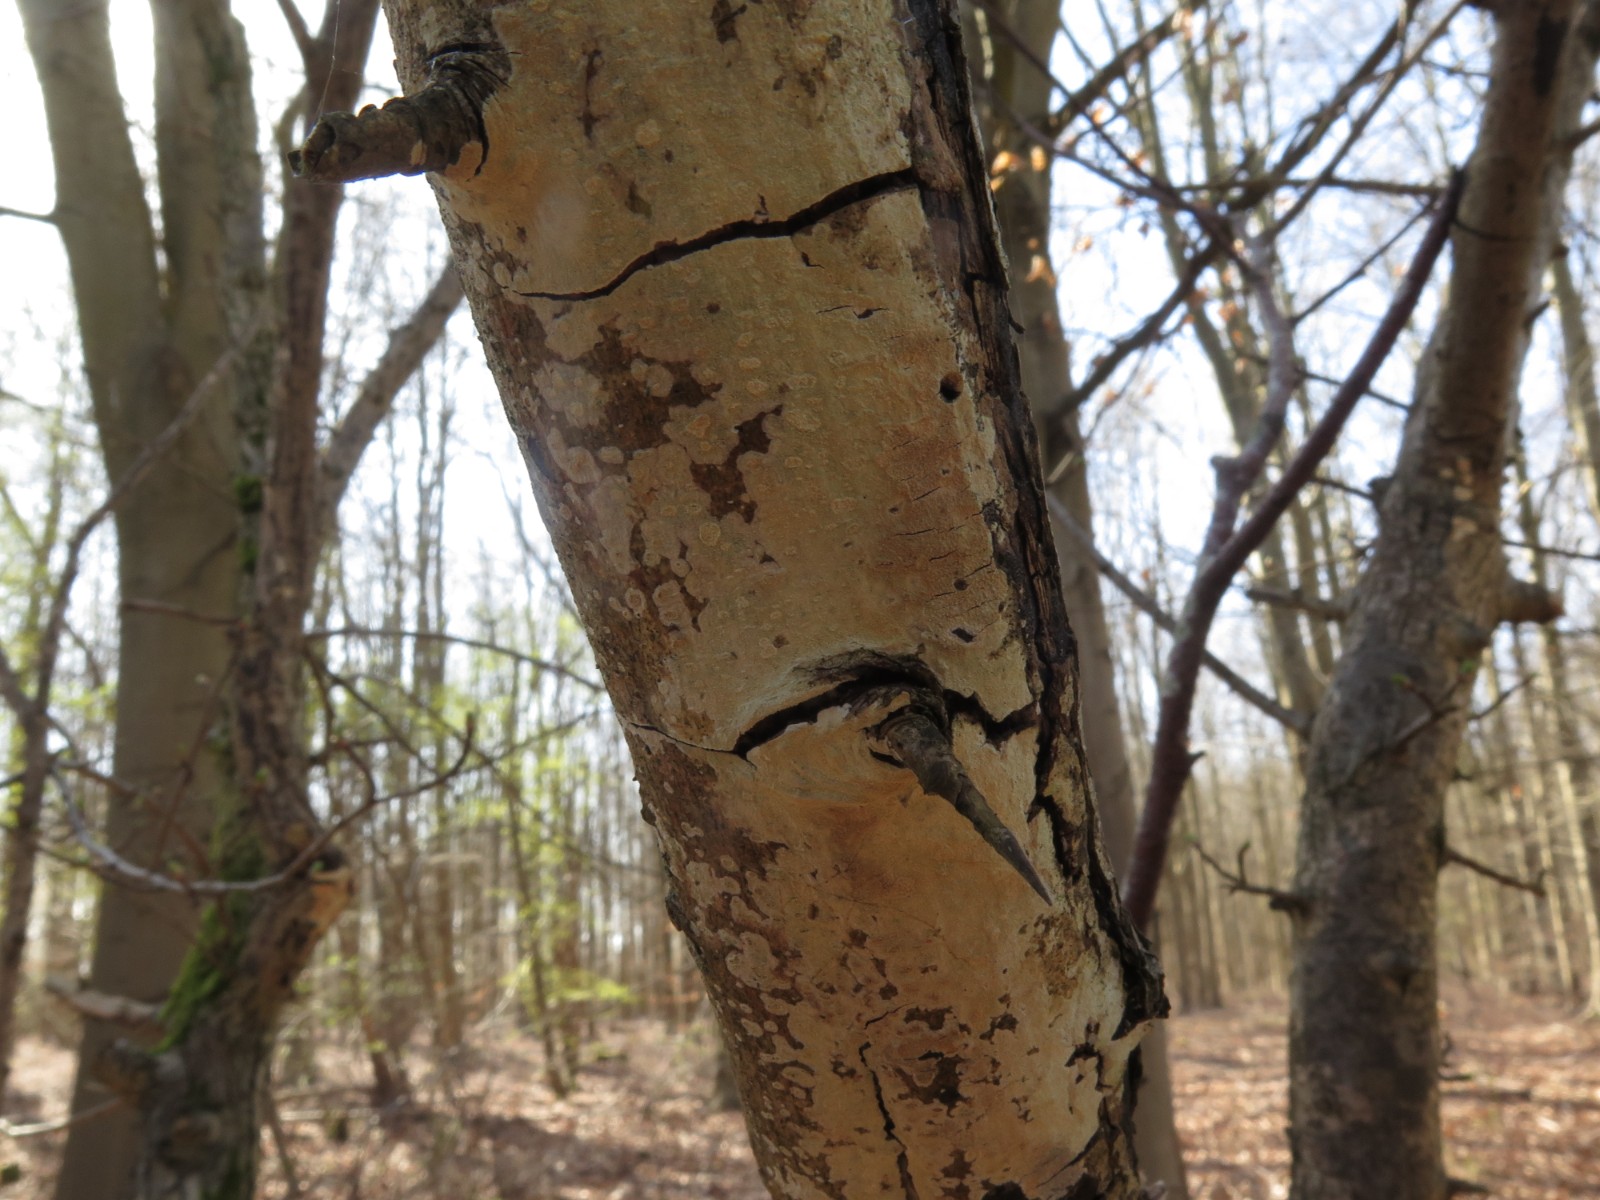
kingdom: Fungi
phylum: Basidiomycota
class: Agaricomycetes
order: Corticiales
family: Corticiaceae
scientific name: Corticiaceae
